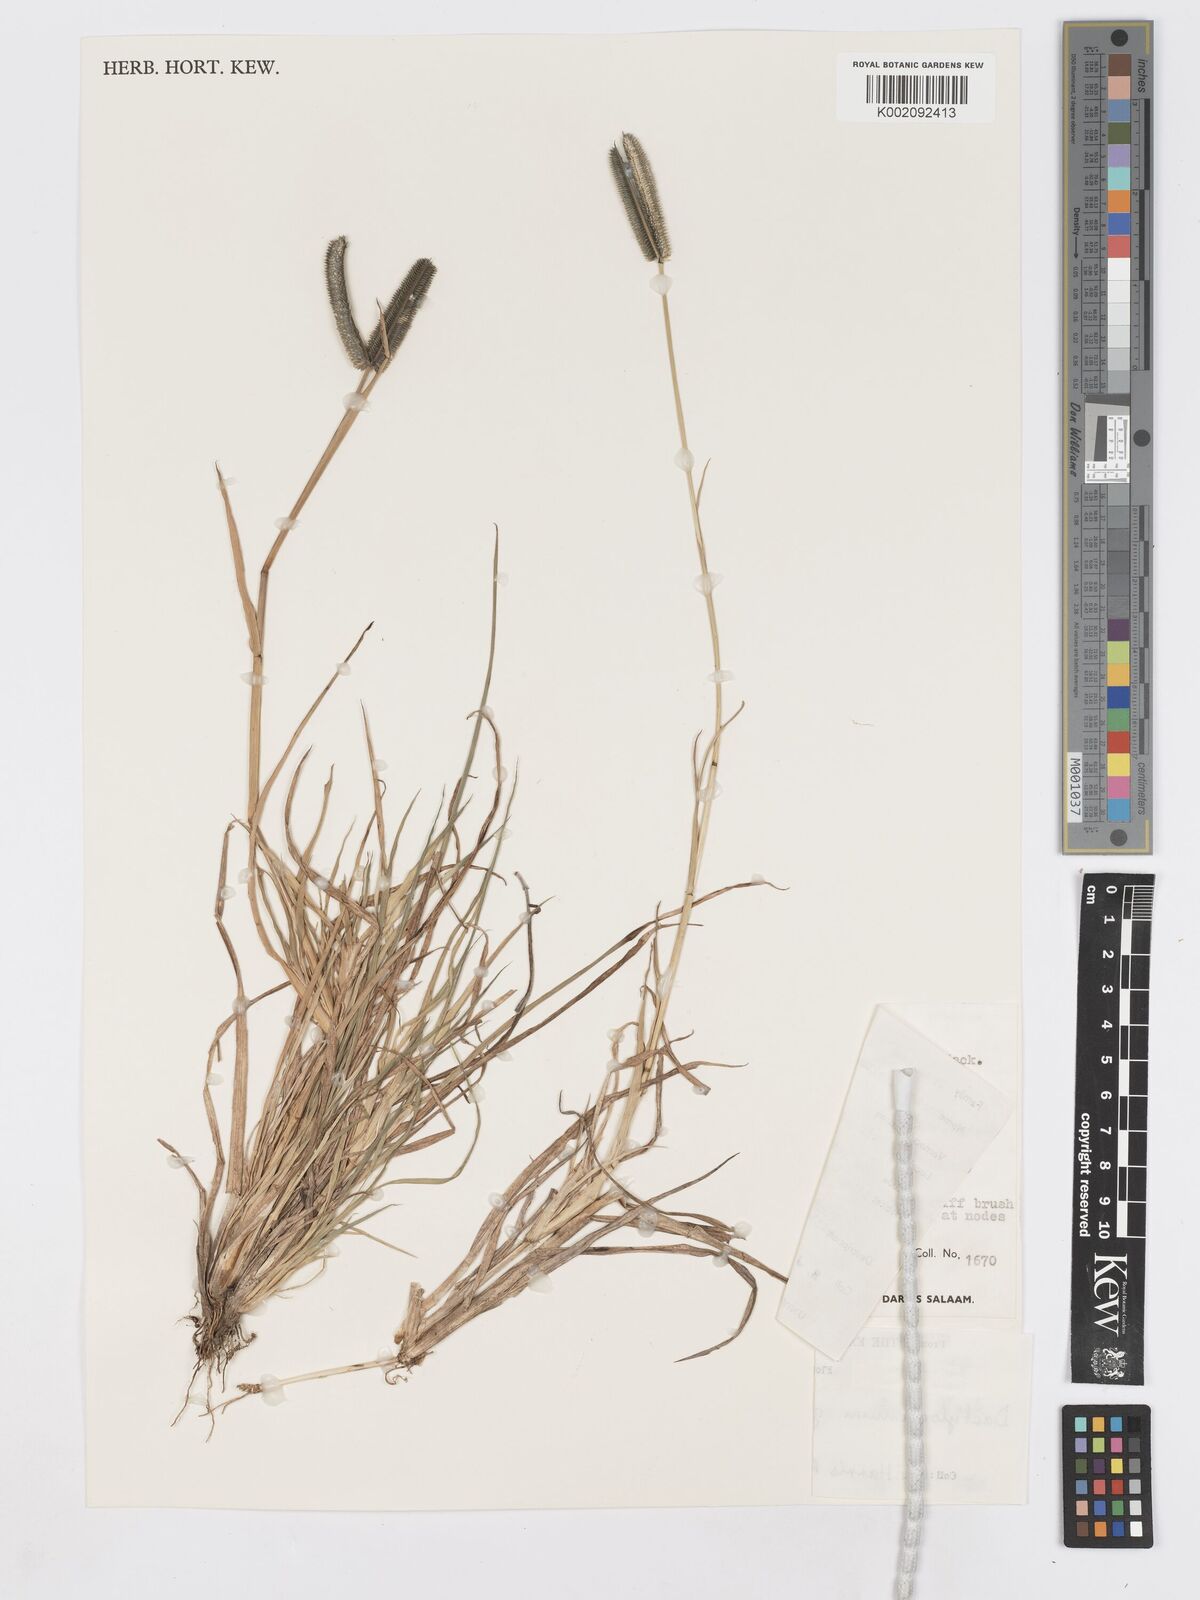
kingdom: Plantae
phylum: Tracheophyta
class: Liliopsida
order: Poales
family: Poaceae
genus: Dactyloctenium
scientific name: Dactyloctenium geminatum
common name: Crowsfoot grass
